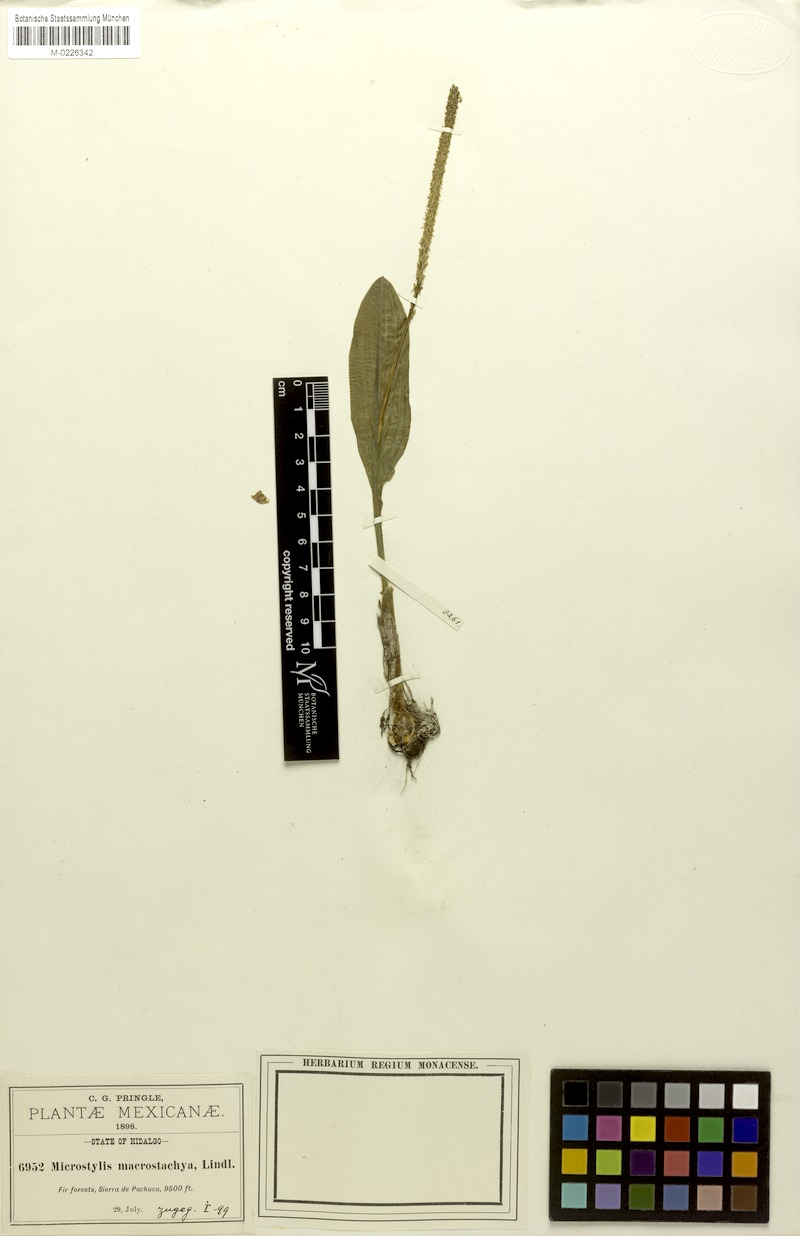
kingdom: Plantae
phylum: Tracheophyta
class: Liliopsida
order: Asparagales
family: Orchidaceae
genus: Malaxis
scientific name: Malaxis macrostachya
